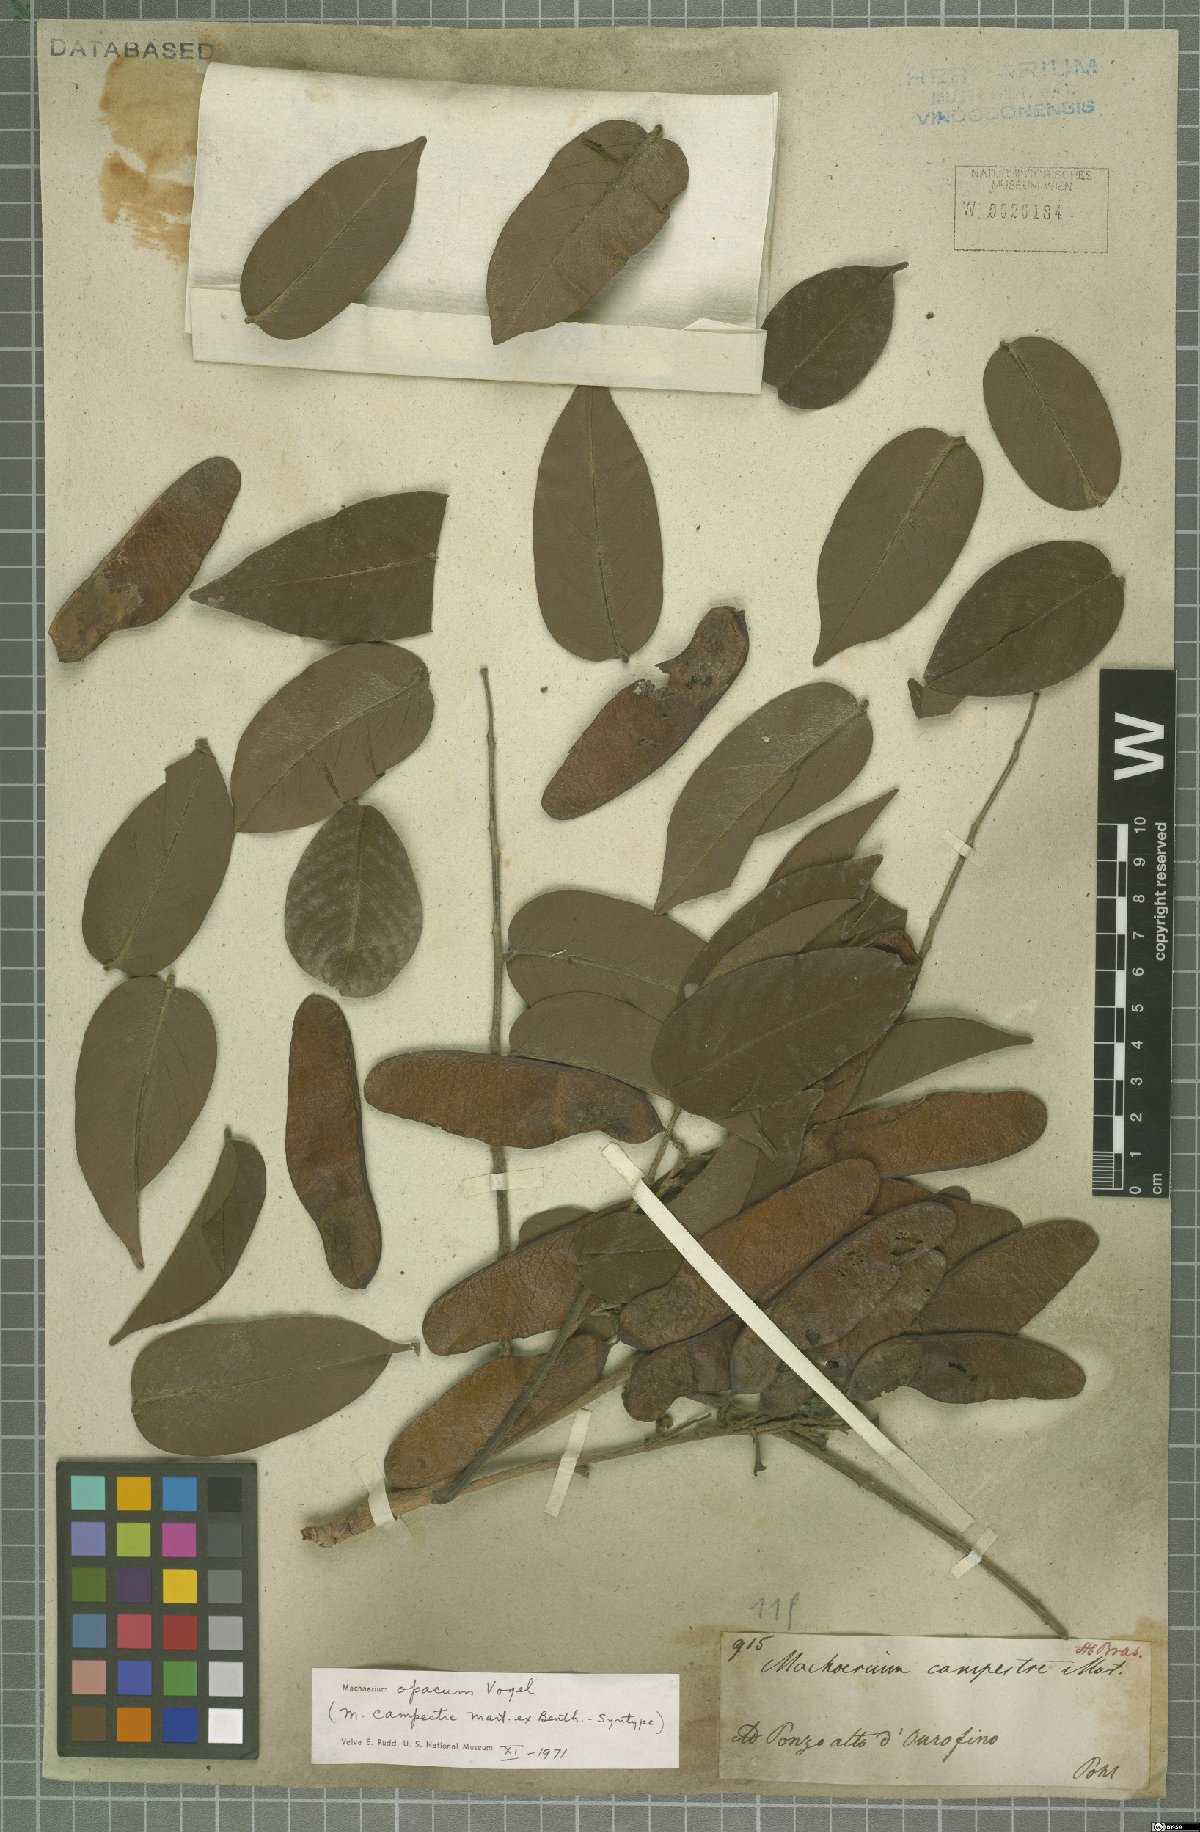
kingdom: Plantae
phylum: Tracheophyta
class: Magnoliopsida
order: Fabales
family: Fabaceae
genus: Machaerium
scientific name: Machaerium opacum
